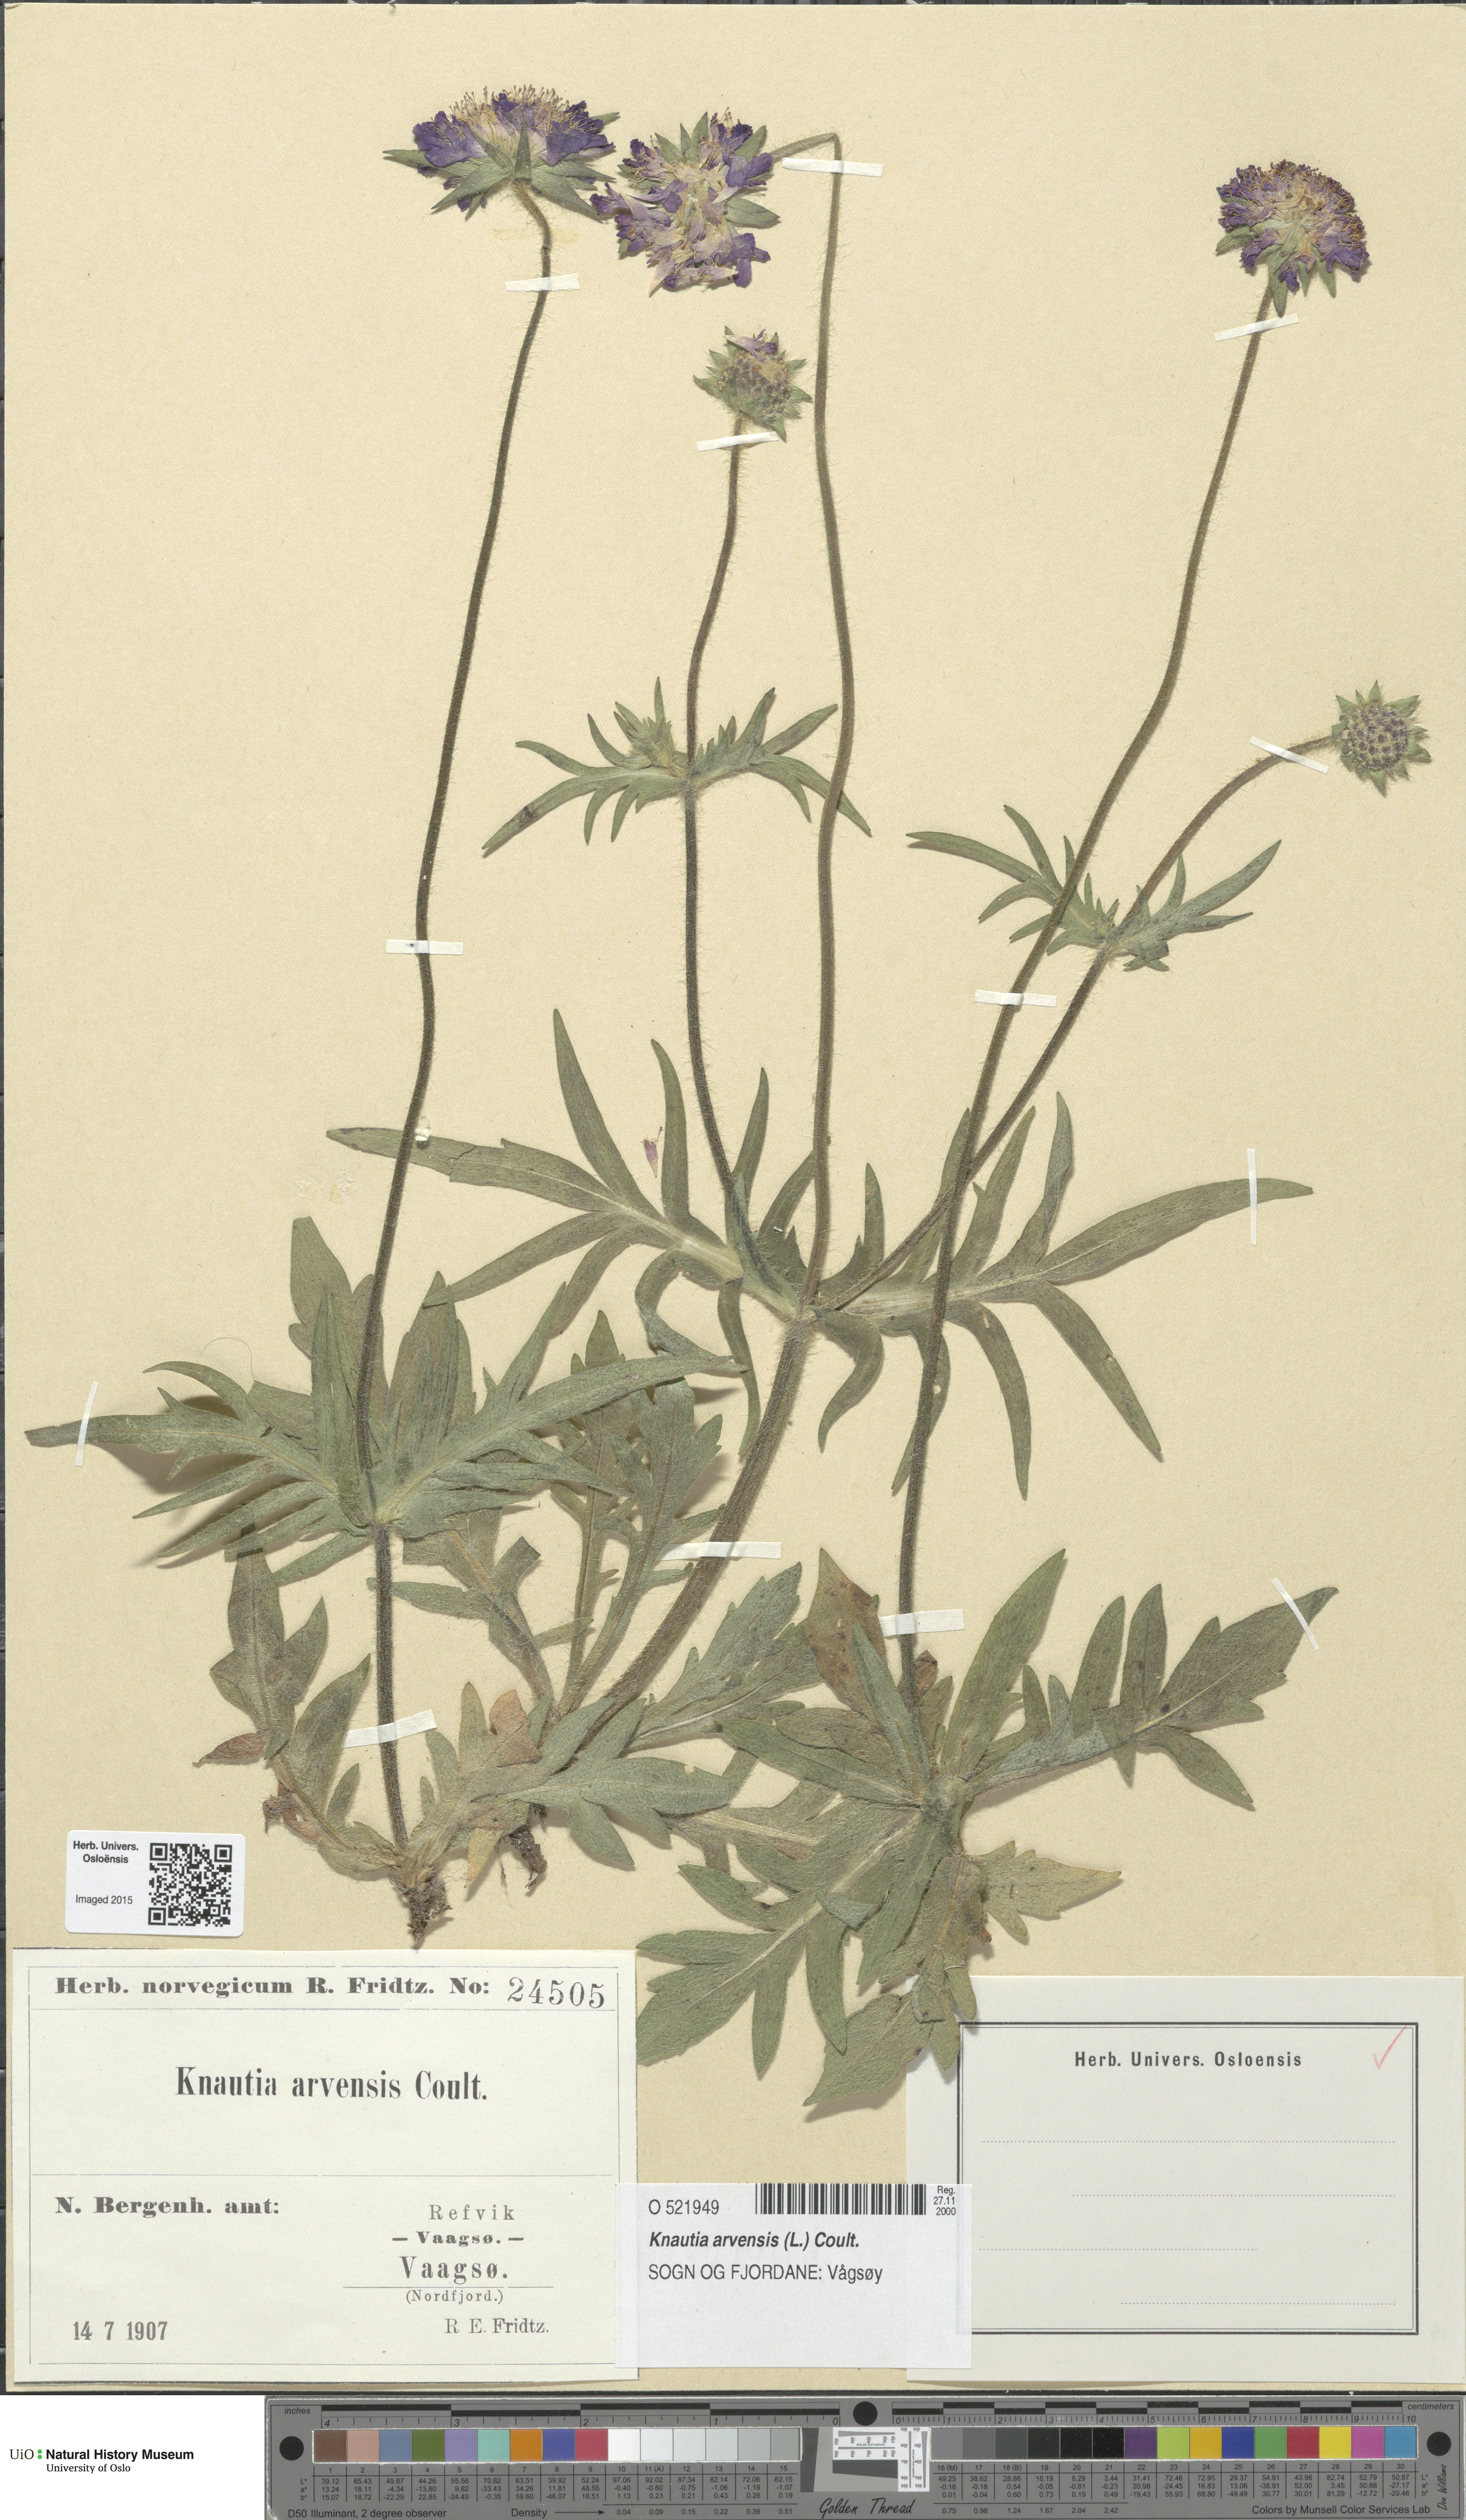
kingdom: Plantae
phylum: Tracheophyta
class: Magnoliopsida
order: Dipsacales
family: Caprifoliaceae
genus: Knautia
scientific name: Knautia arvensis
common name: Field scabiosa
